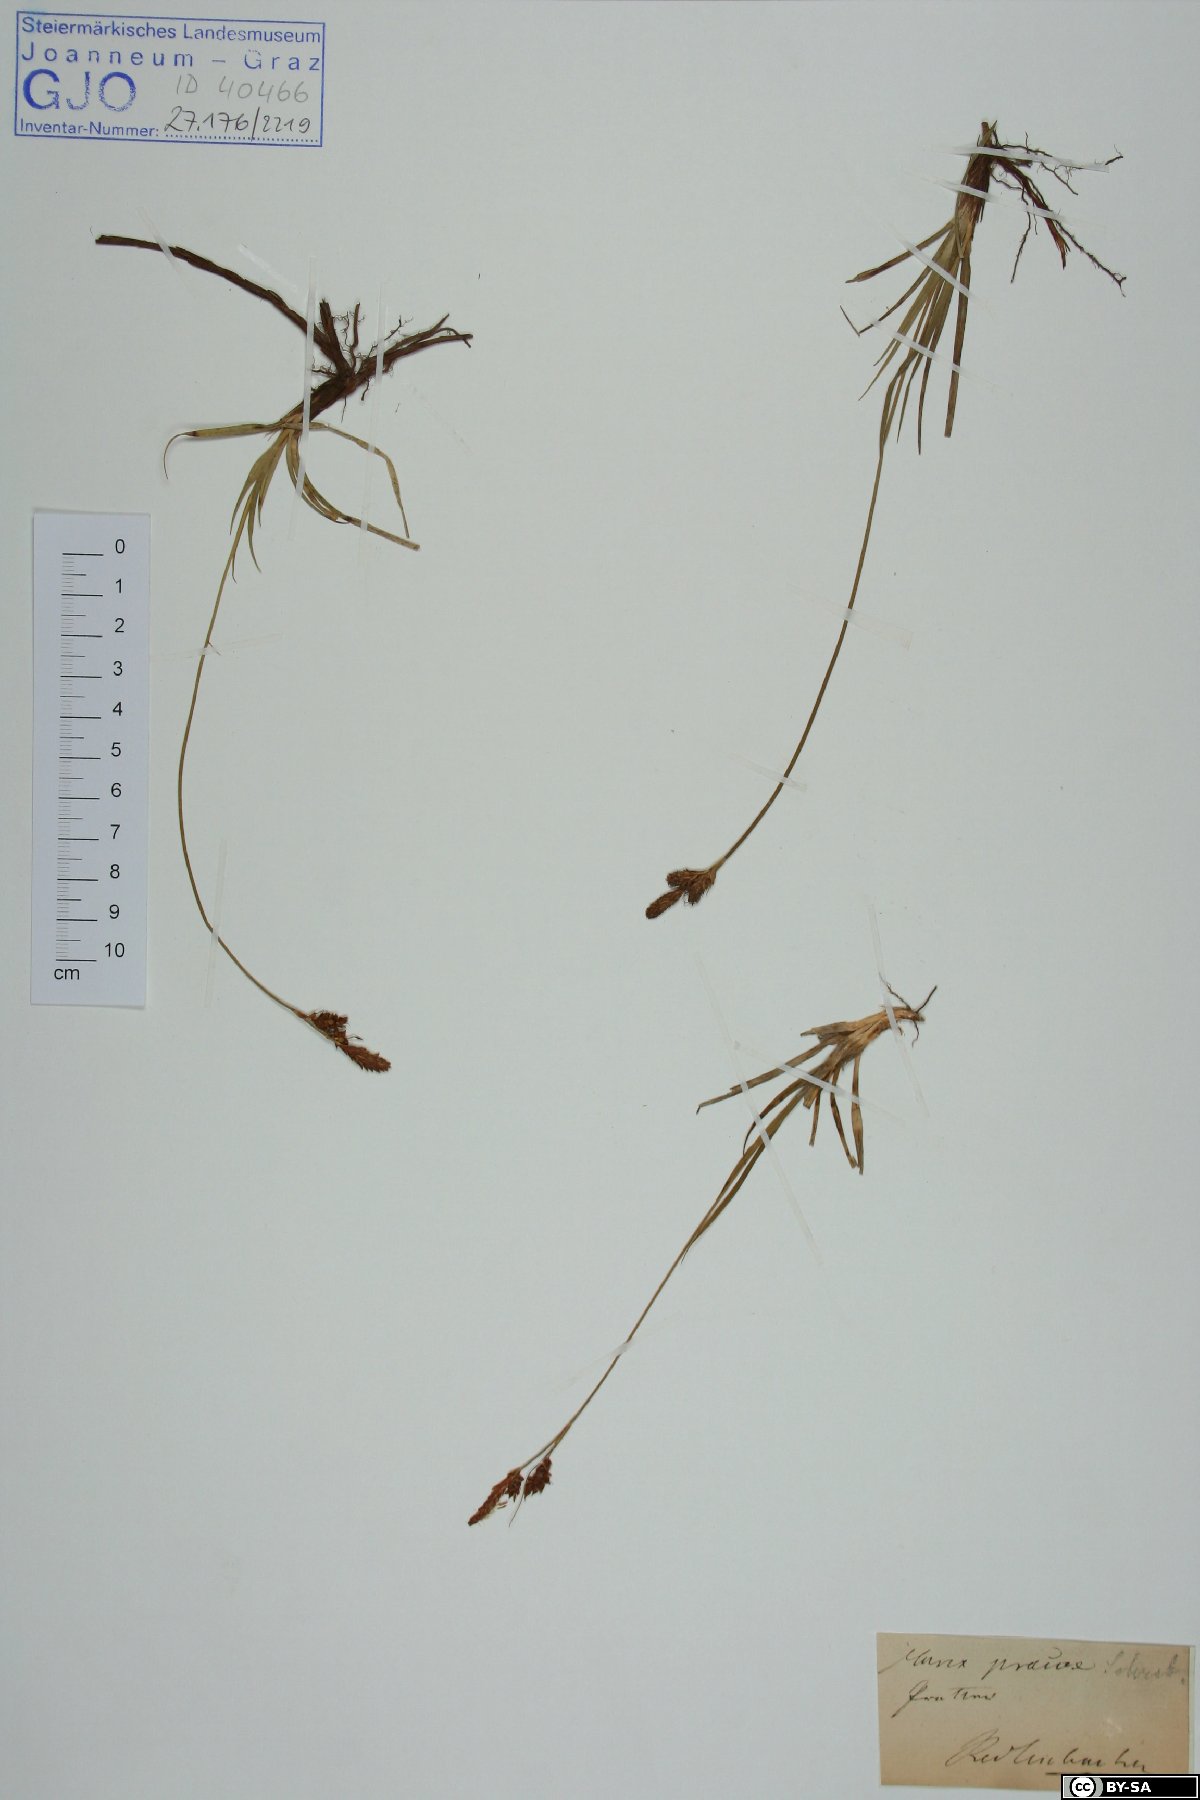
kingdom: Plantae
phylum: Tracheophyta
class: Liliopsida
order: Poales
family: Cyperaceae
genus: Carex
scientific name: Carex praecox
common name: Early sedge
